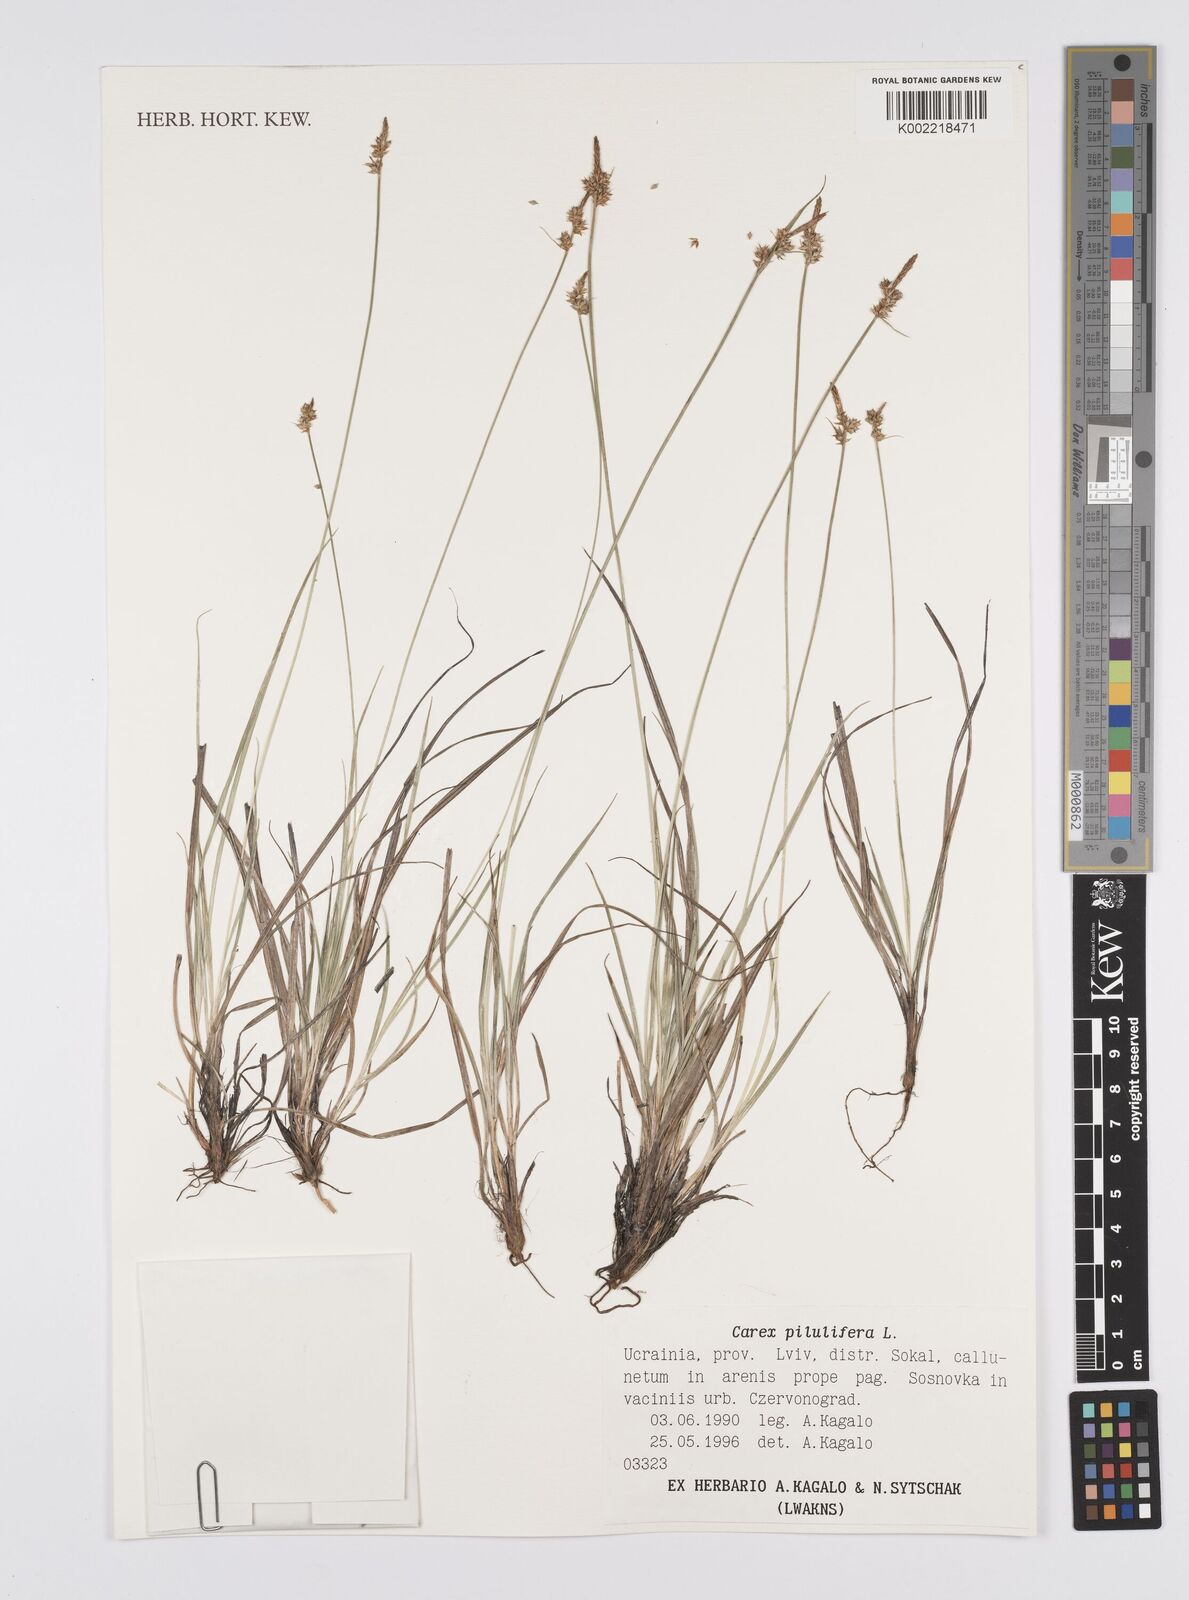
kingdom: Plantae
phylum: Tracheophyta
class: Liliopsida
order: Poales
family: Cyperaceae
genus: Carex
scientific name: Carex pilulifera
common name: Pill sedge
